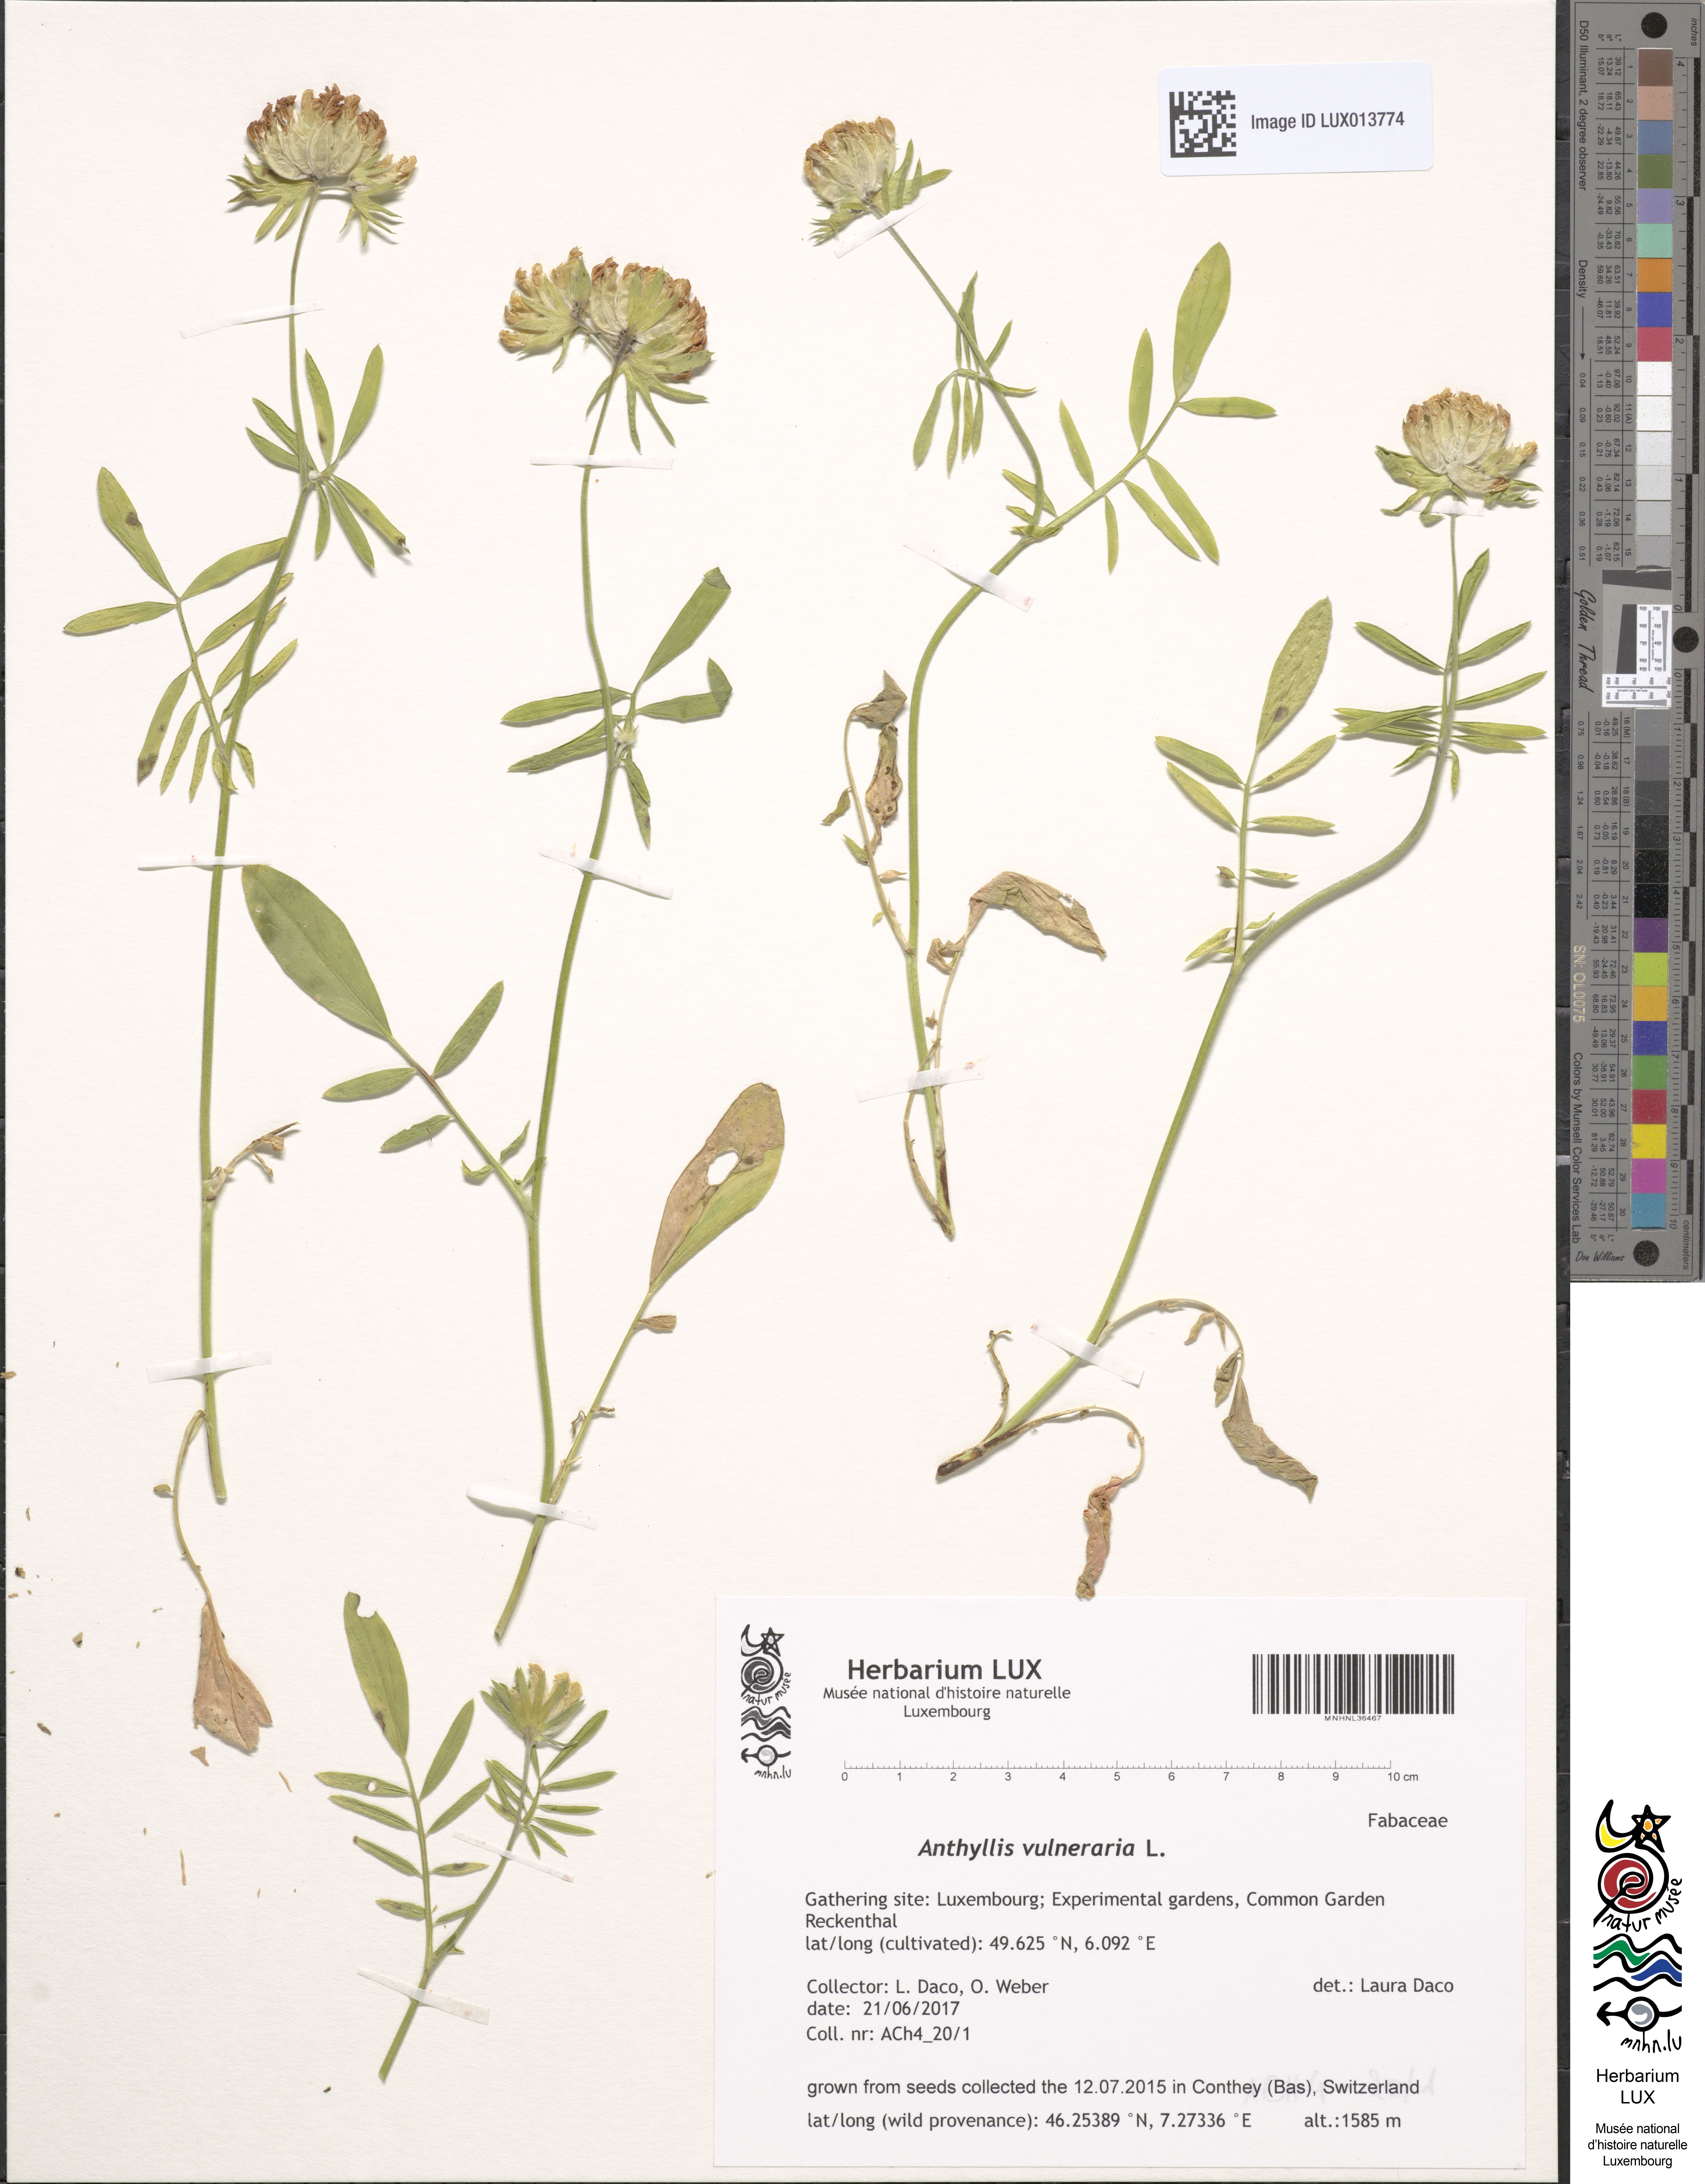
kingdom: Plantae
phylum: Tracheophyta
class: Magnoliopsida
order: Fabales
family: Fabaceae
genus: Anthyllis
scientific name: Anthyllis vulneraria
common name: Kidney vetch
